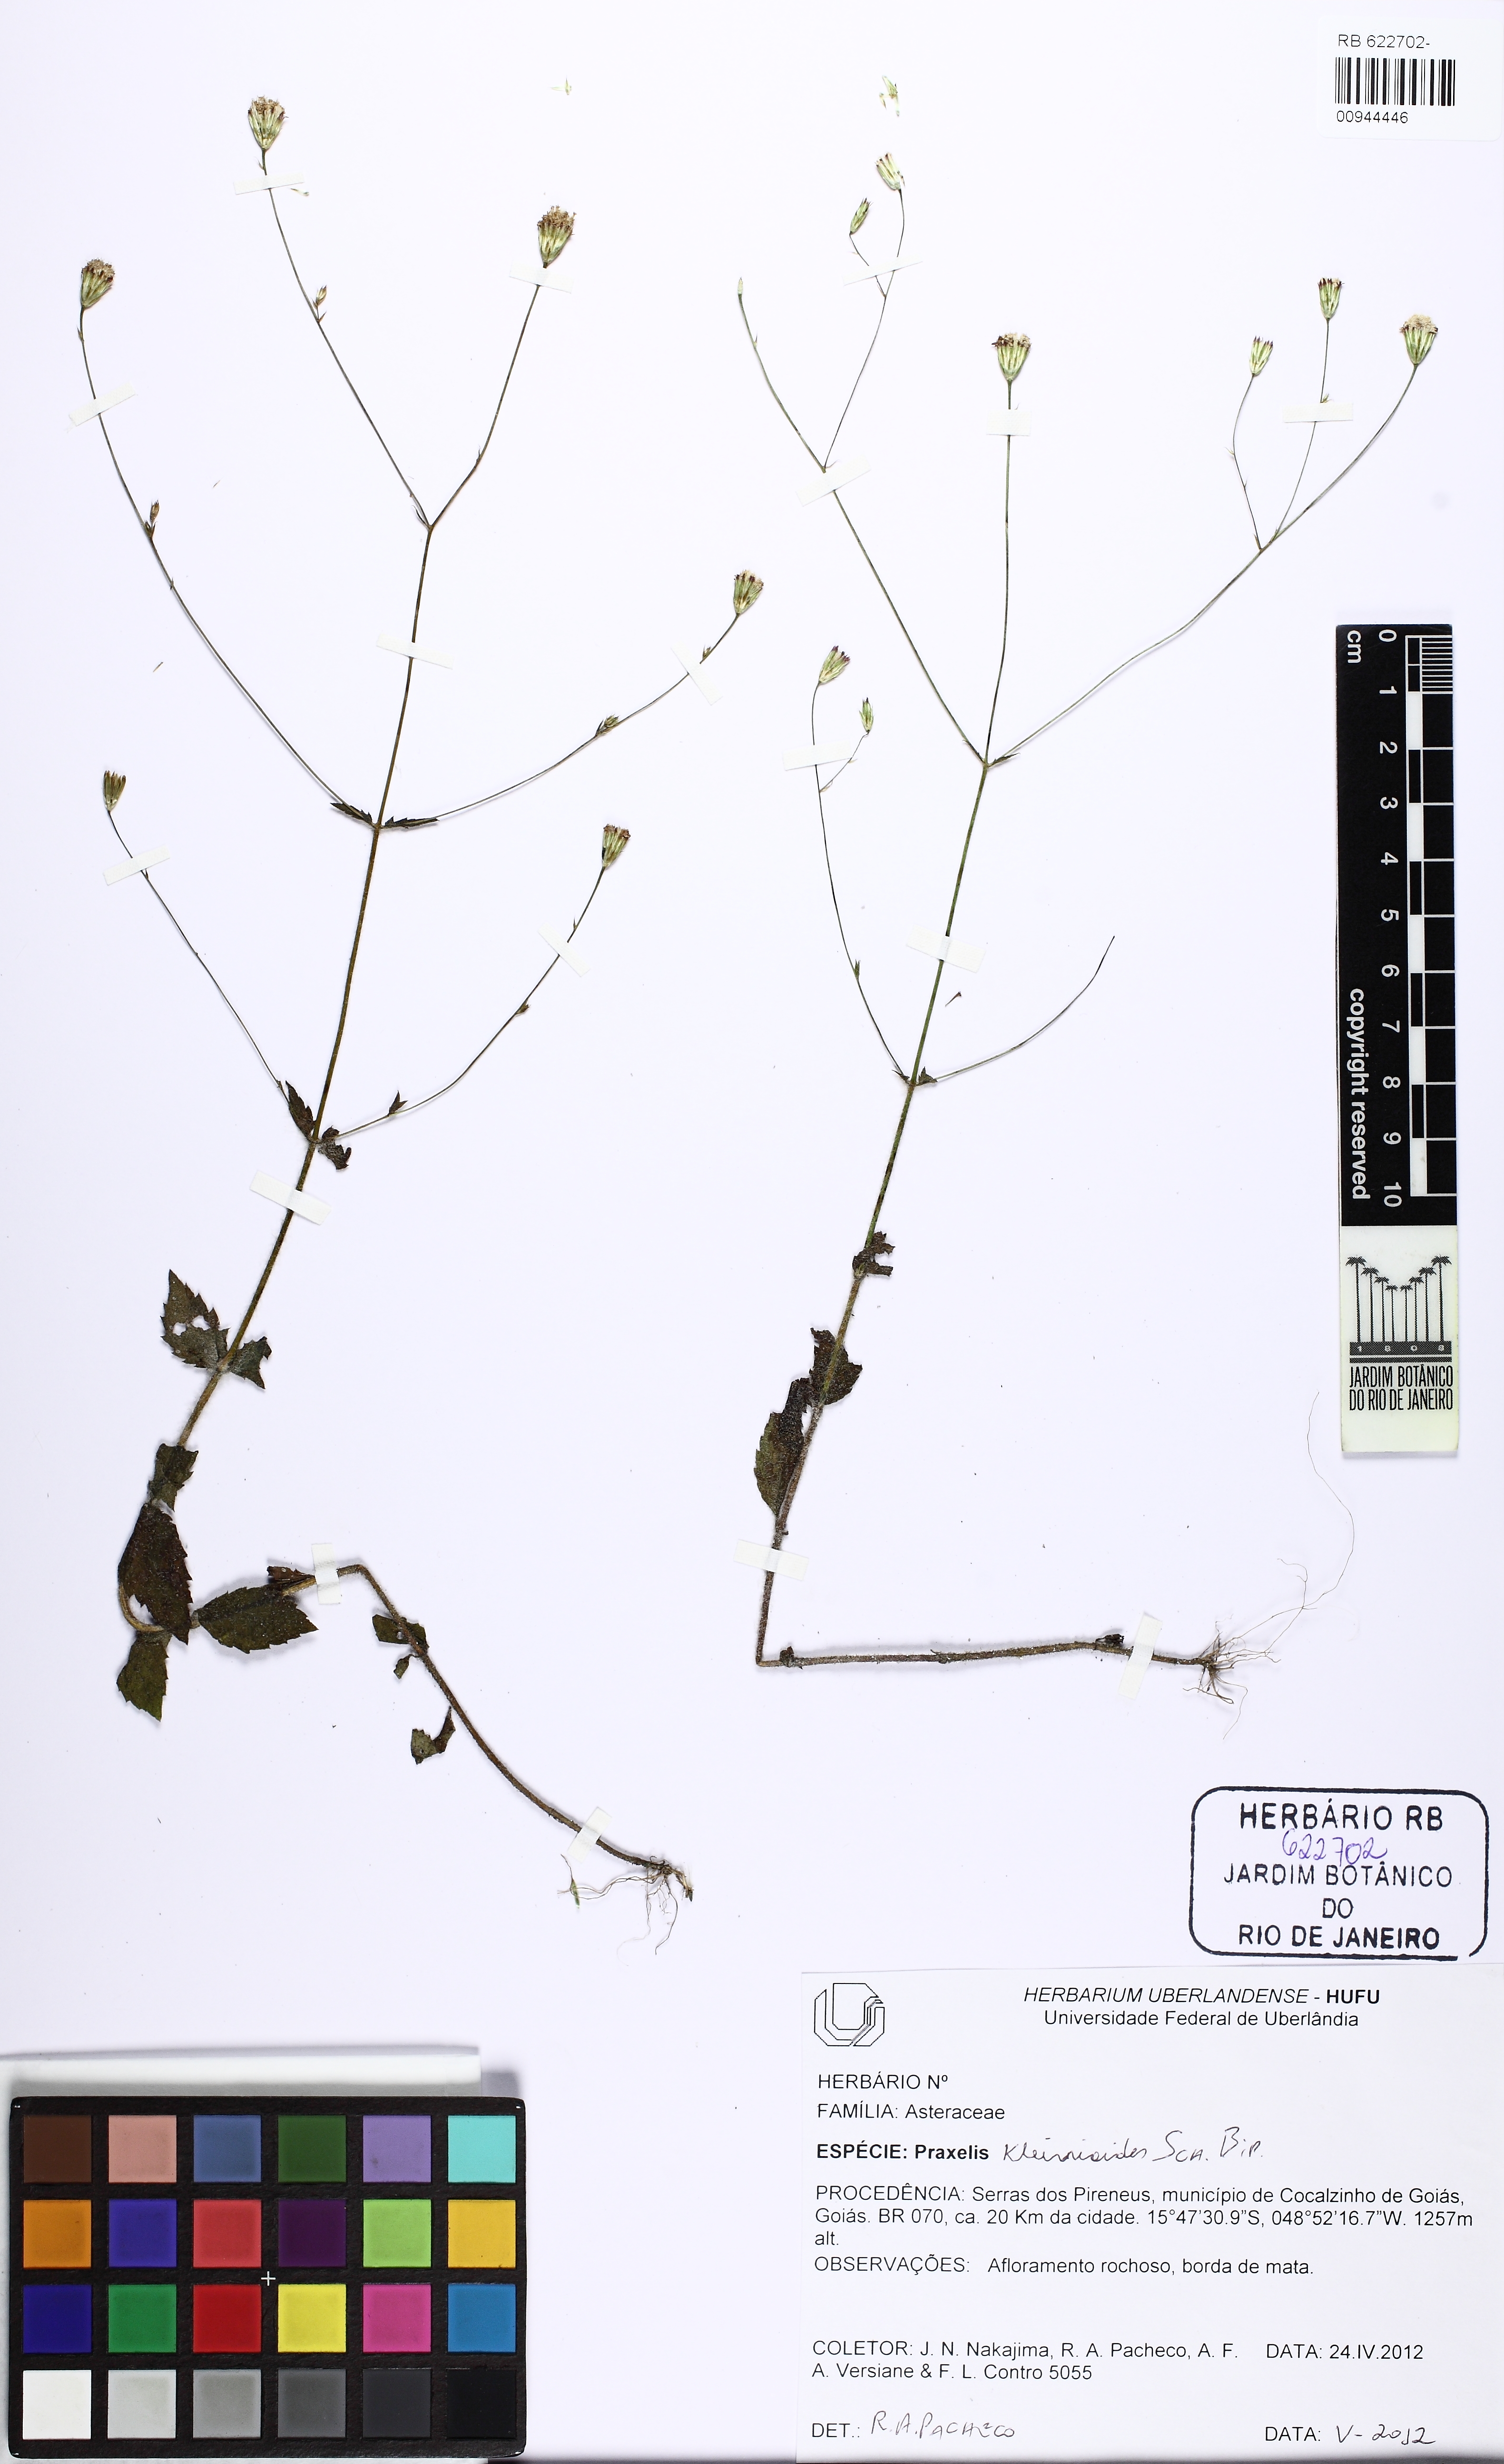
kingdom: Plantae
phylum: Tracheophyta
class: Magnoliopsida
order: Asterales
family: Asteraceae
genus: Praxelis
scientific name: Praxelis kleinioides
